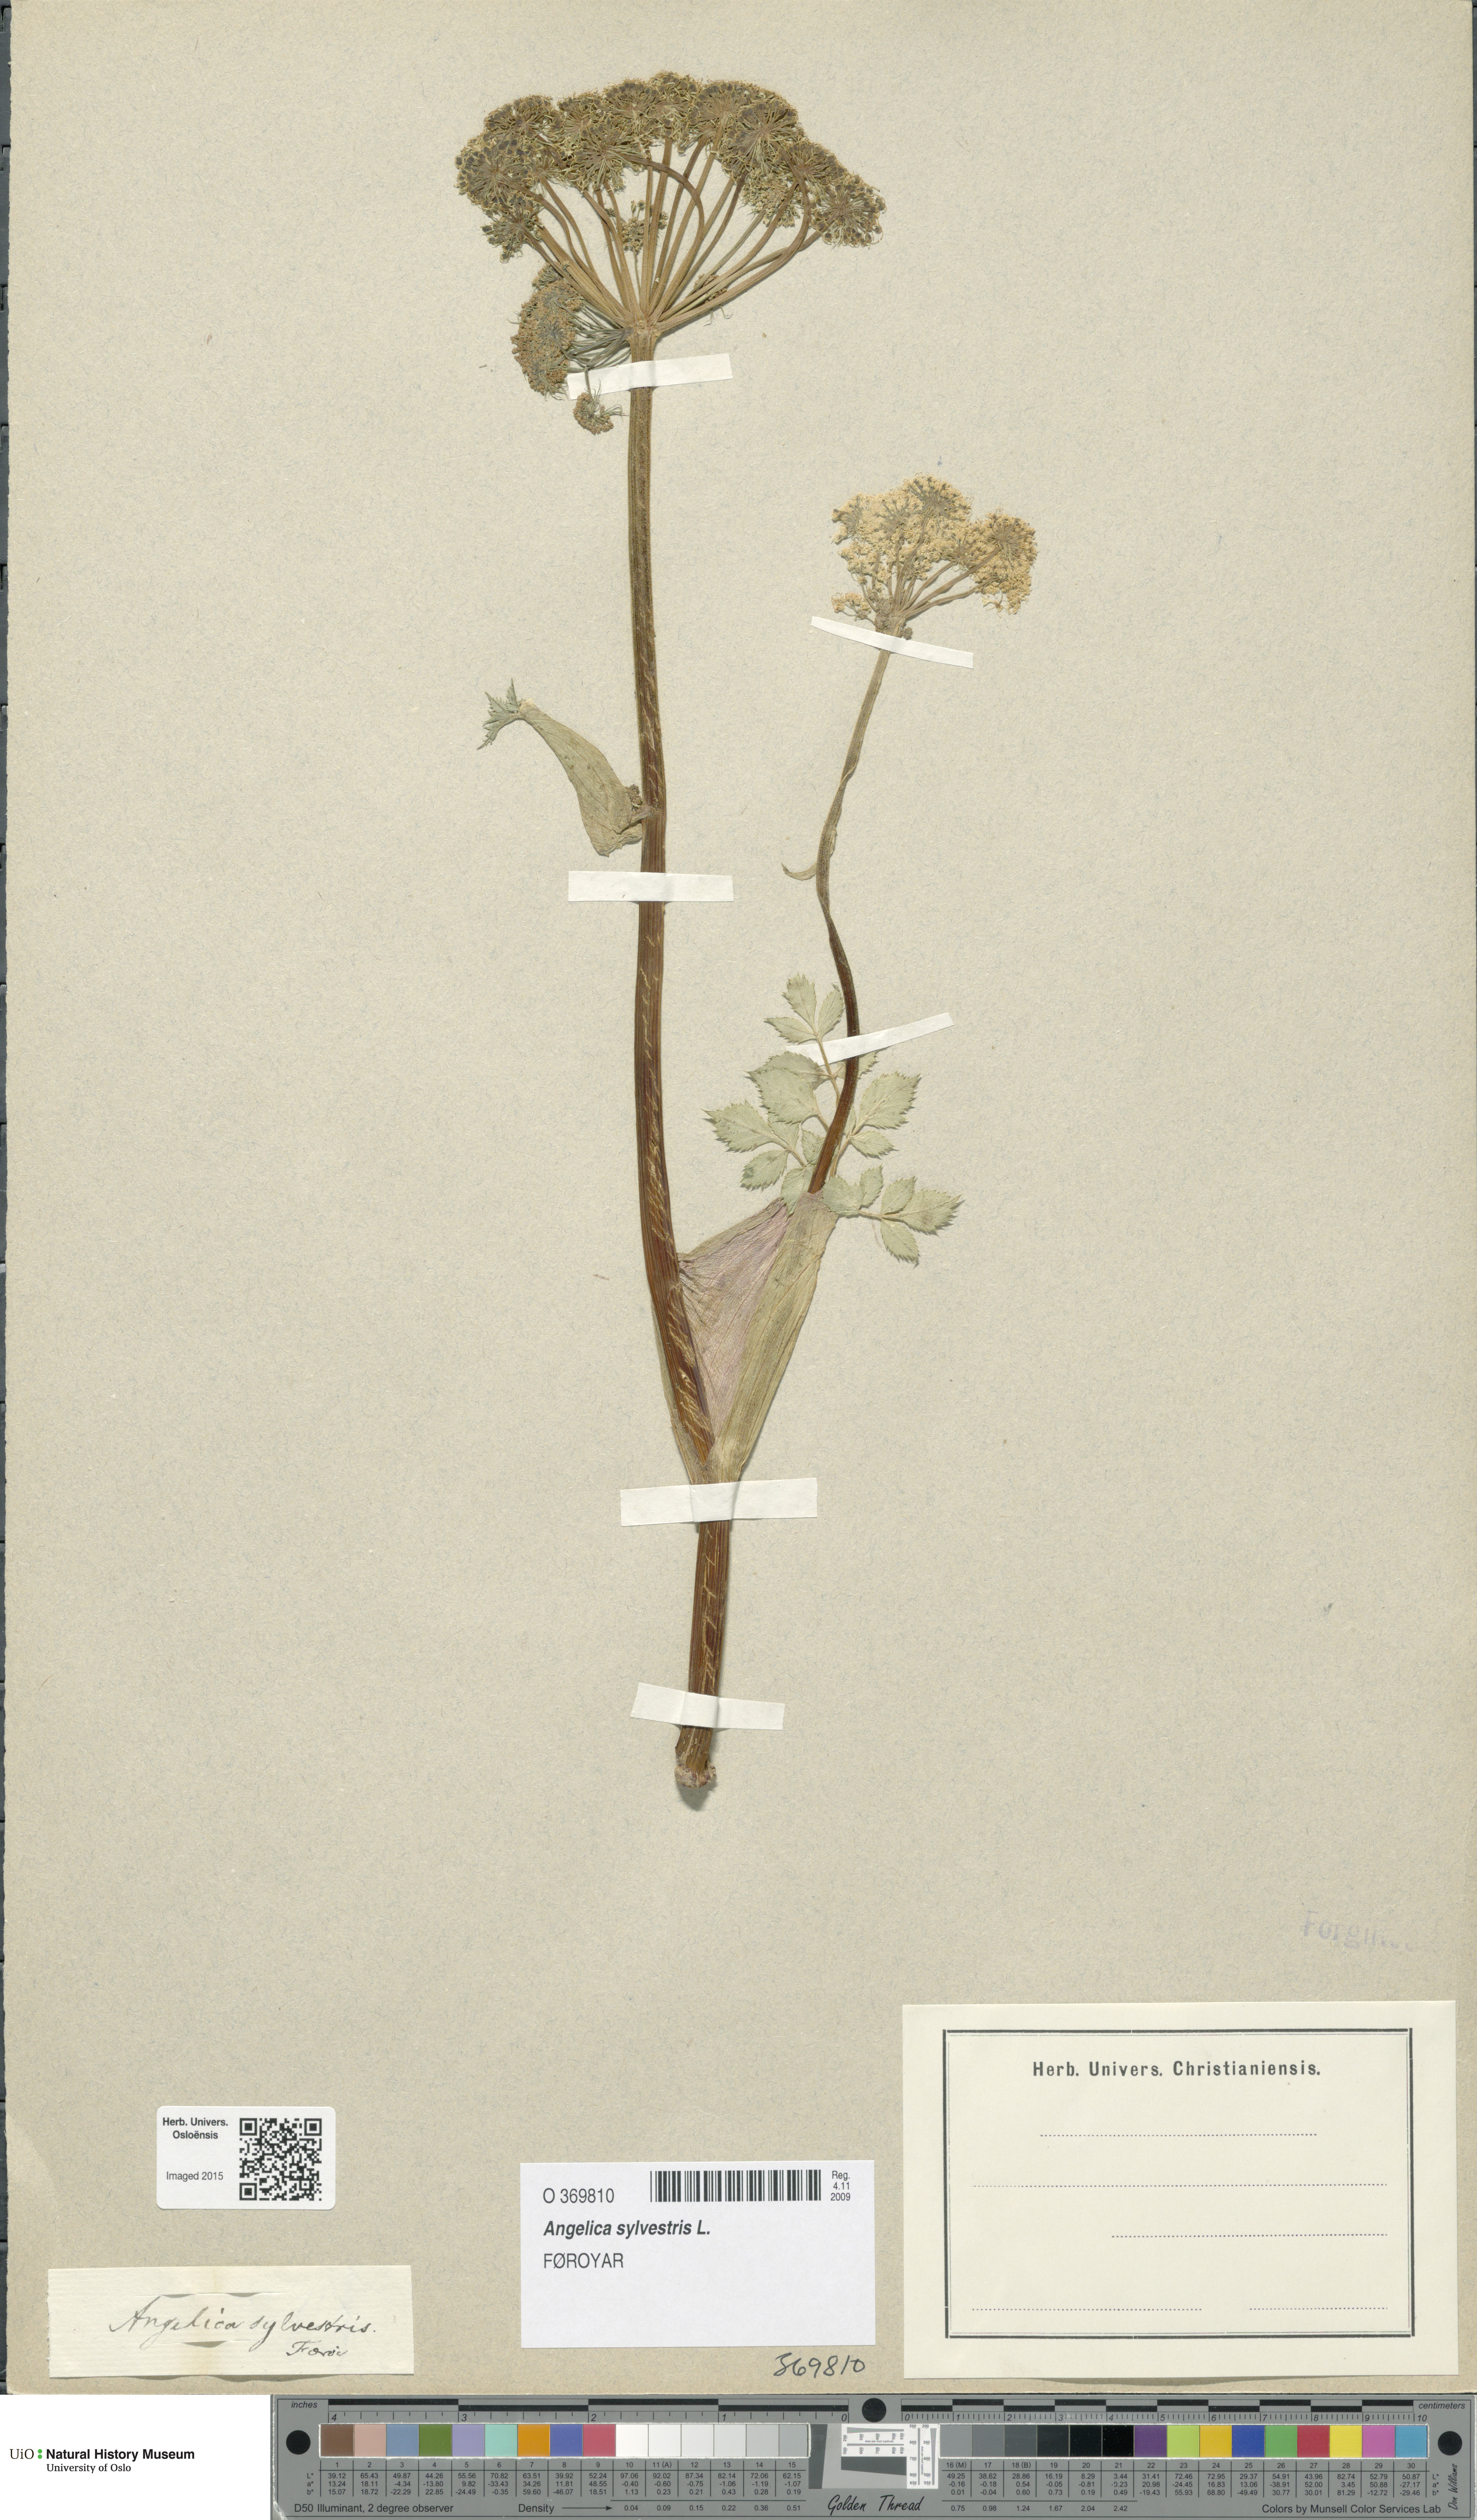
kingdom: Plantae
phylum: Tracheophyta
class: Magnoliopsida
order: Apiales
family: Apiaceae
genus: Angelica
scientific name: Angelica sylvestris
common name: Wild angelica
